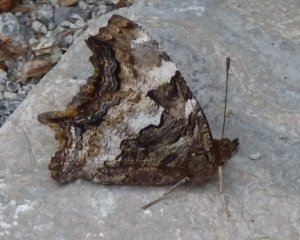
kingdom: Animalia
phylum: Arthropoda
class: Insecta
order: Lepidoptera
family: Nymphalidae
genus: Polygonia
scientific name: Polygonia vaualbum
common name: Compton Tortoiseshell
